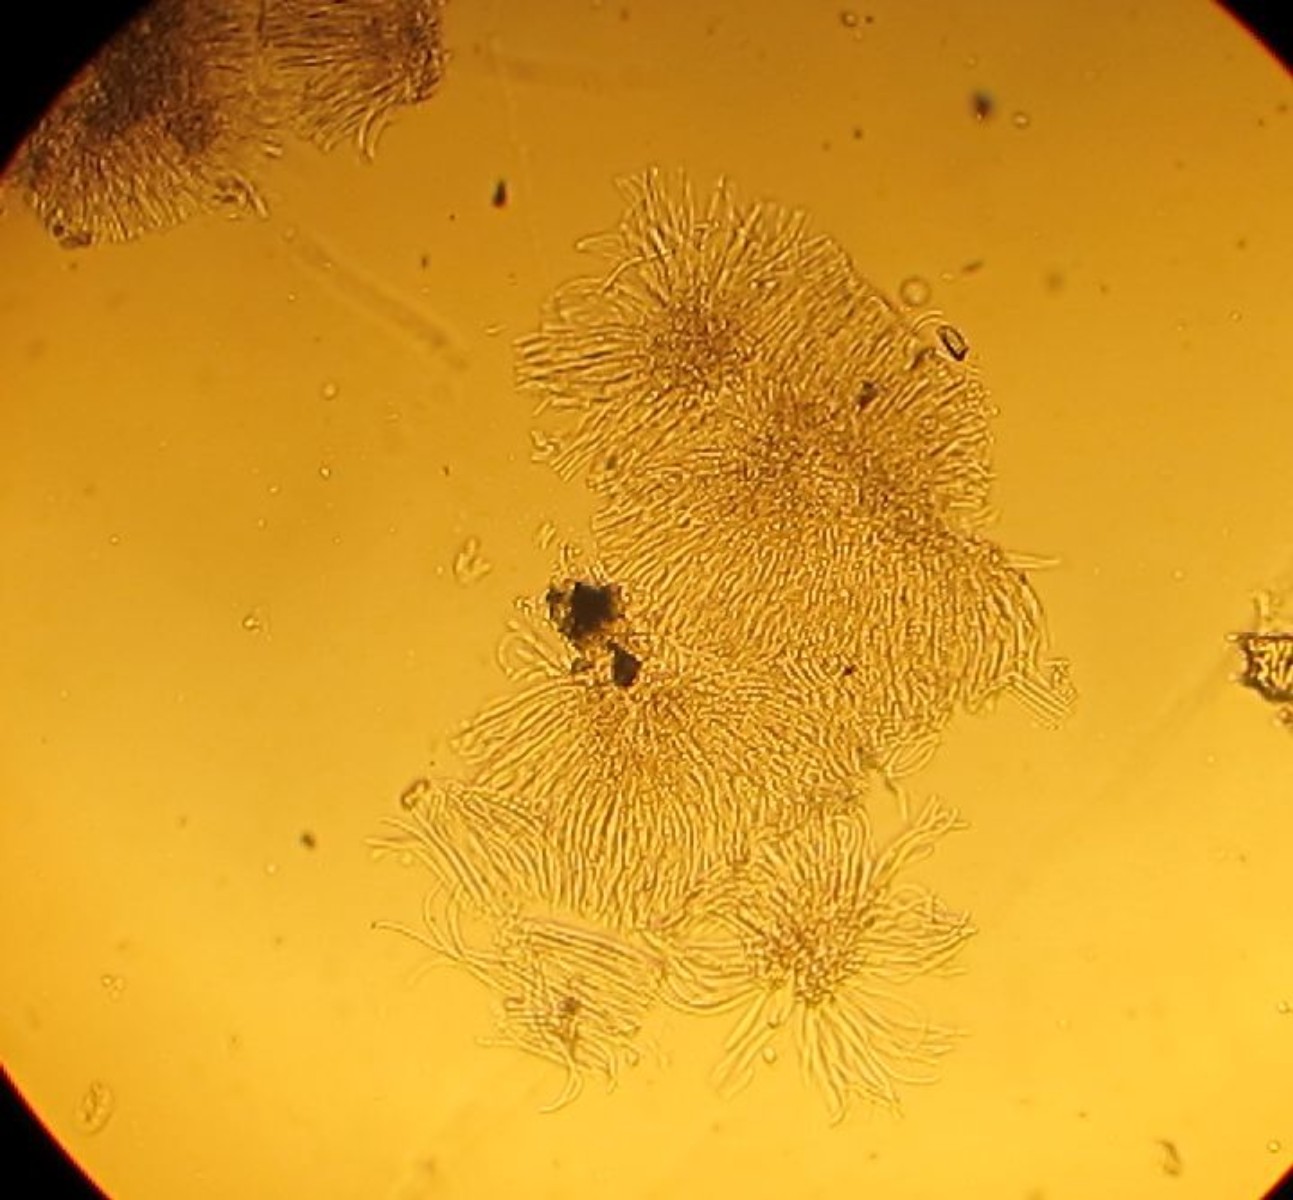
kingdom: Fungi
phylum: Ascomycota
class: Leotiomycetes
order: Rhytismatales
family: Rhytismataceae
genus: Lophodermium
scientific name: Lophodermium pinastri
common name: fyrre-fureplet
